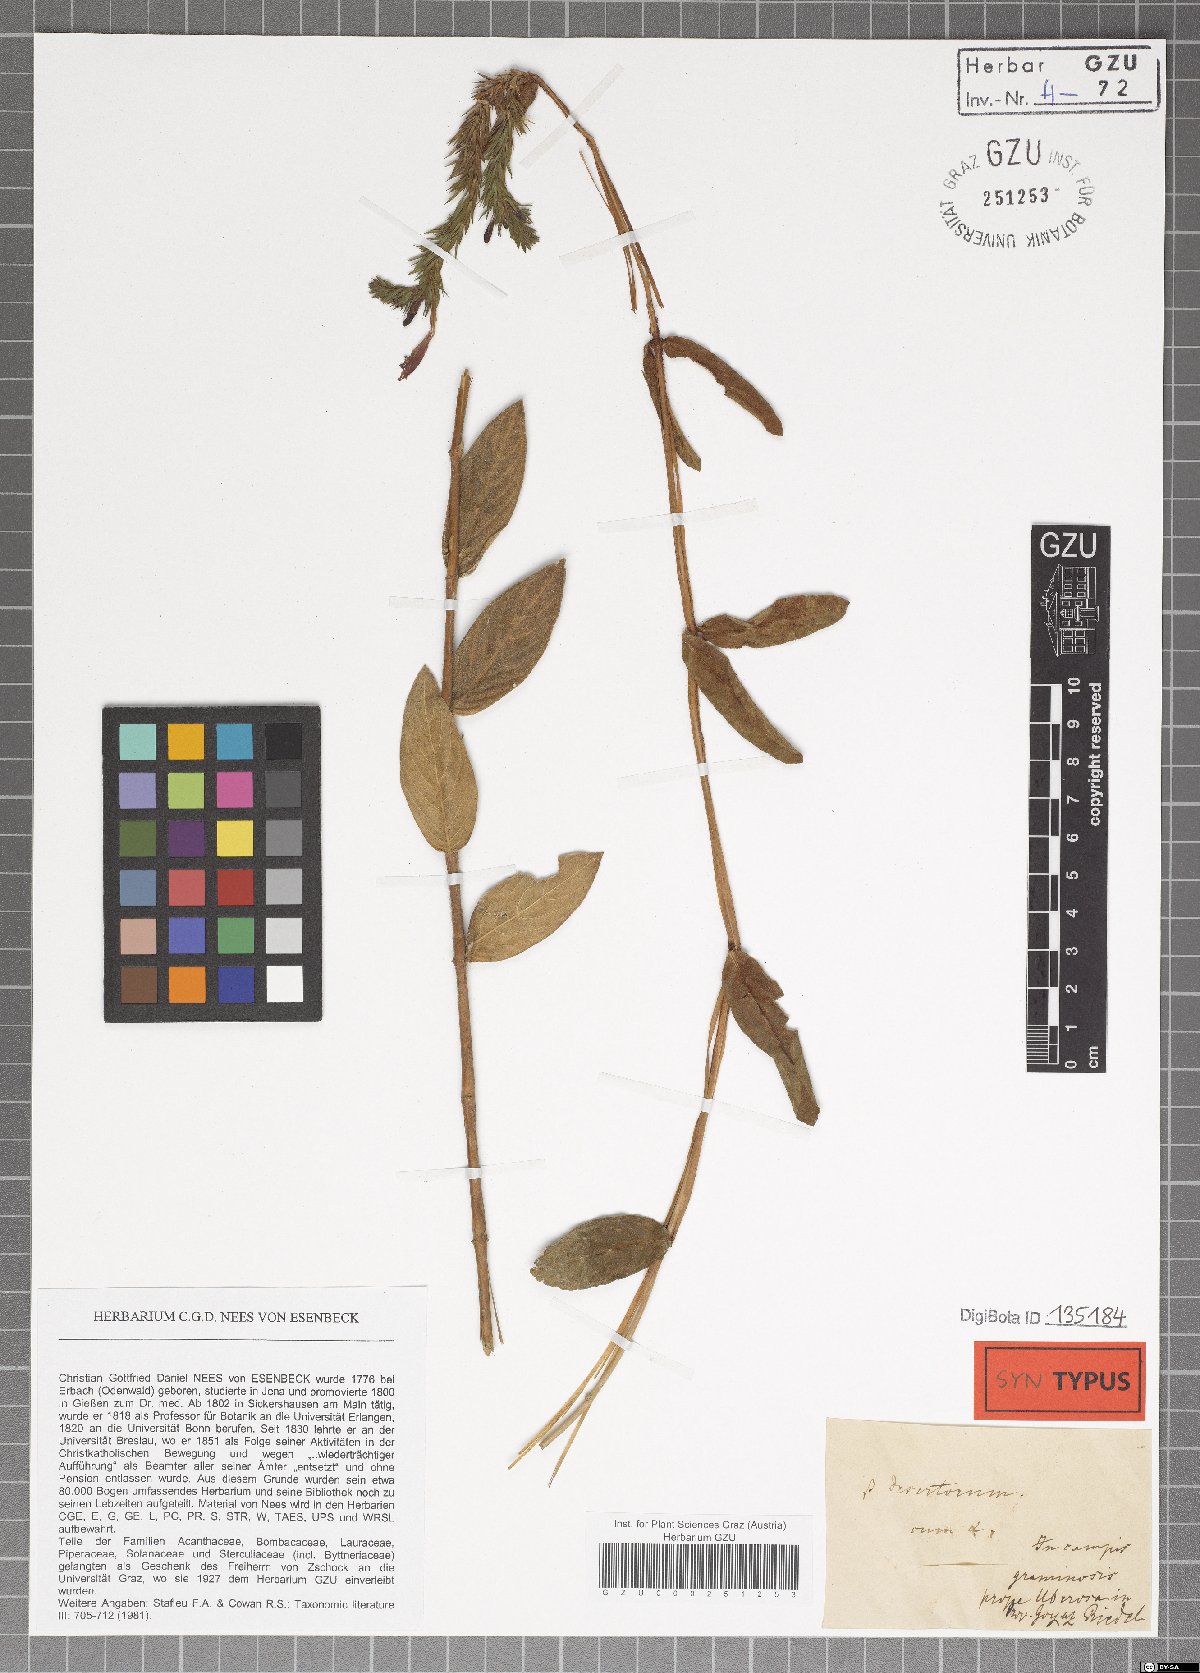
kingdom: Plantae
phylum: Tracheophyta
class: Magnoliopsida
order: Lamiales
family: Acanthaceae
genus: Dianthera
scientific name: Dianthera rigida
